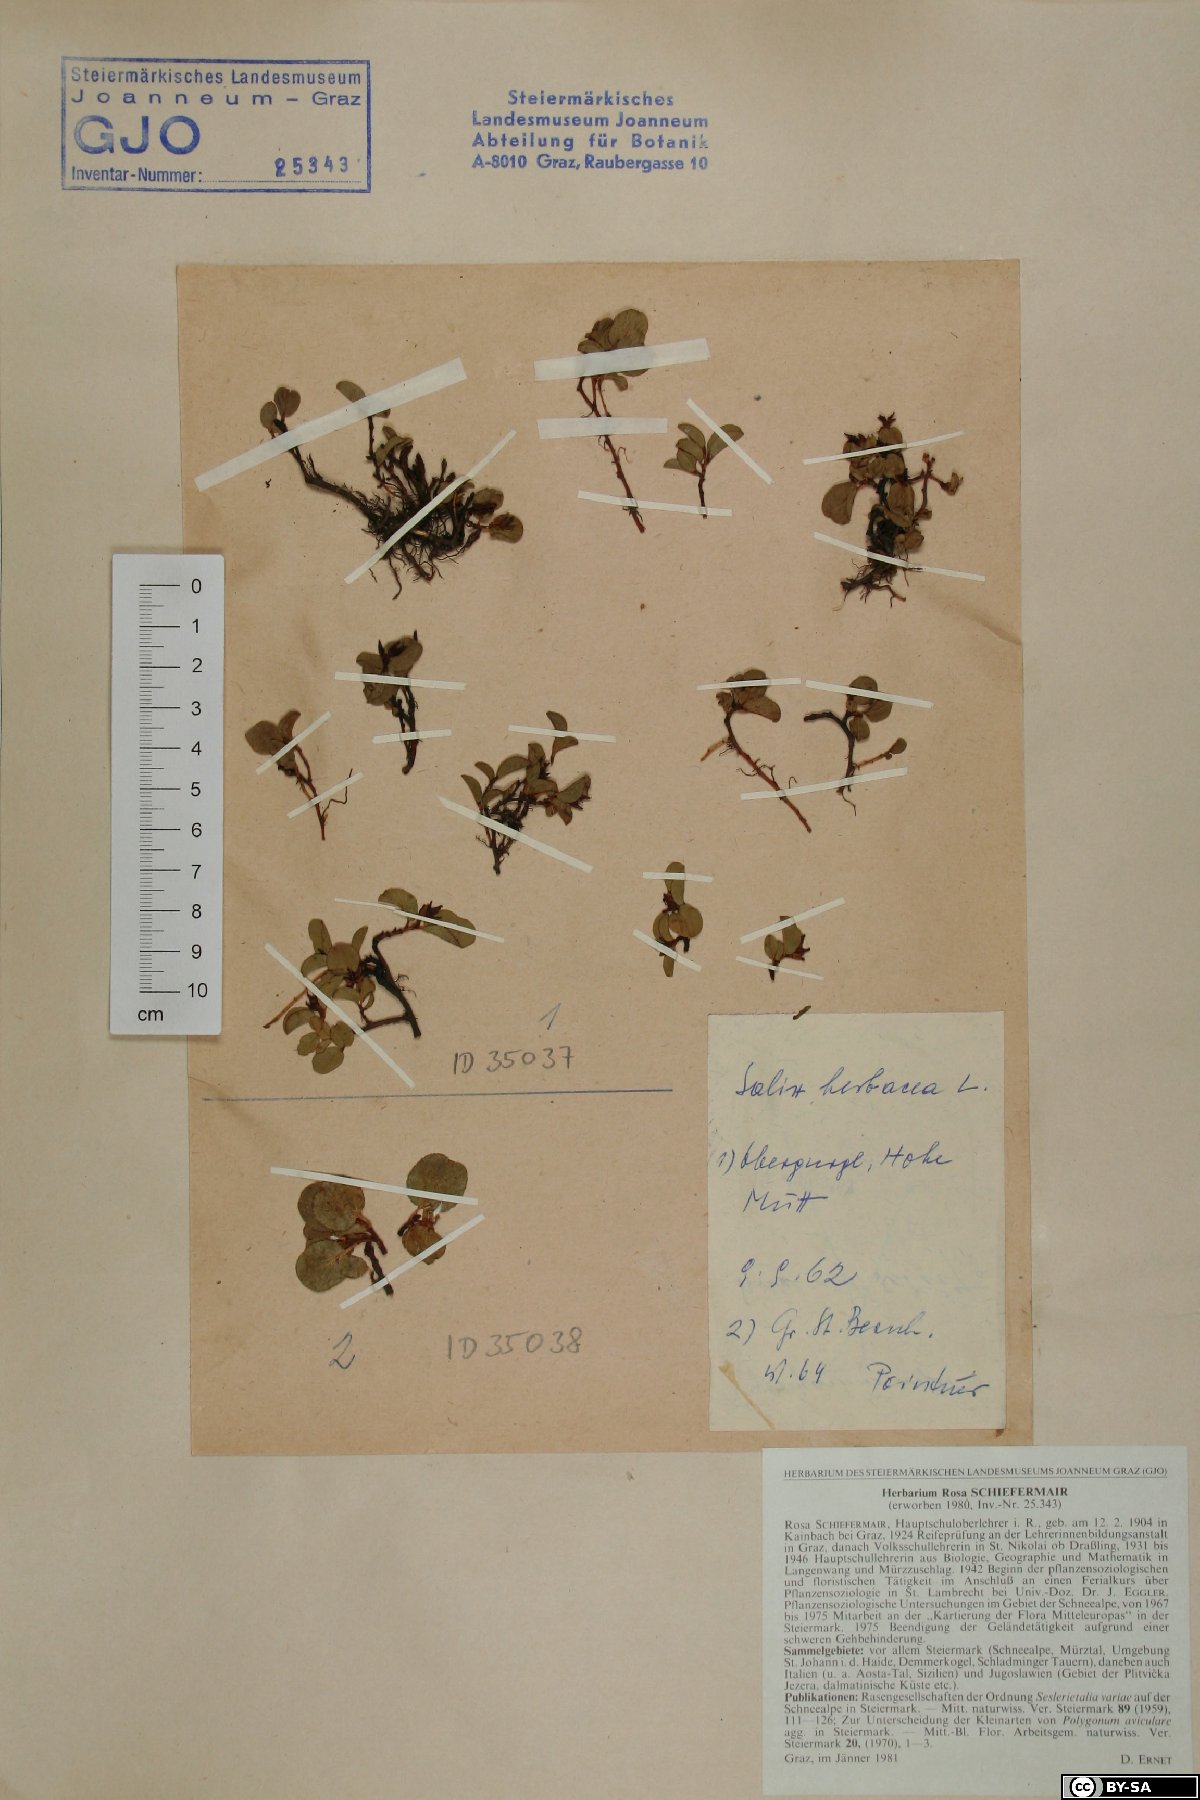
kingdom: Plantae
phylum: Tracheophyta
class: Magnoliopsida
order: Malpighiales
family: Salicaceae
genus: Salix
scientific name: Salix herbacea
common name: Dwarf willow
